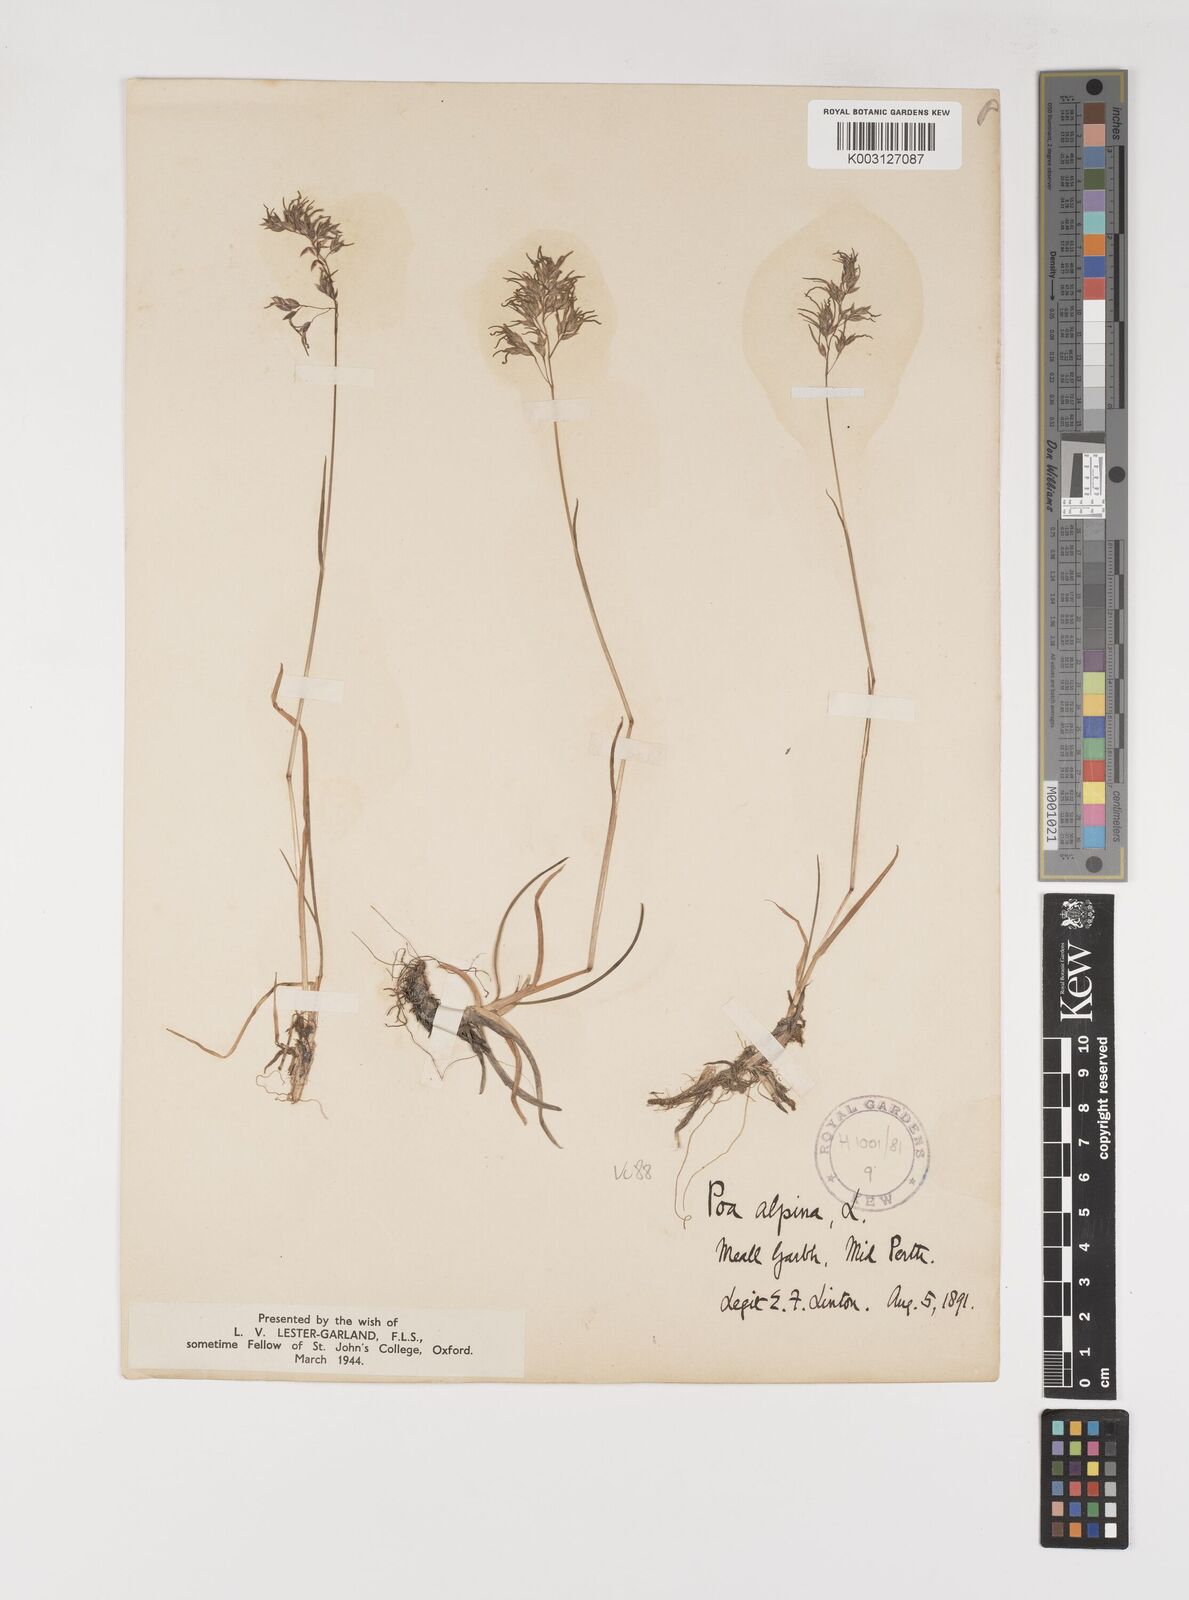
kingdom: Plantae
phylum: Tracheophyta
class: Liliopsida
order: Poales
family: Poaceae
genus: Poa
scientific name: Poa alpina
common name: Alpine bluegrass
